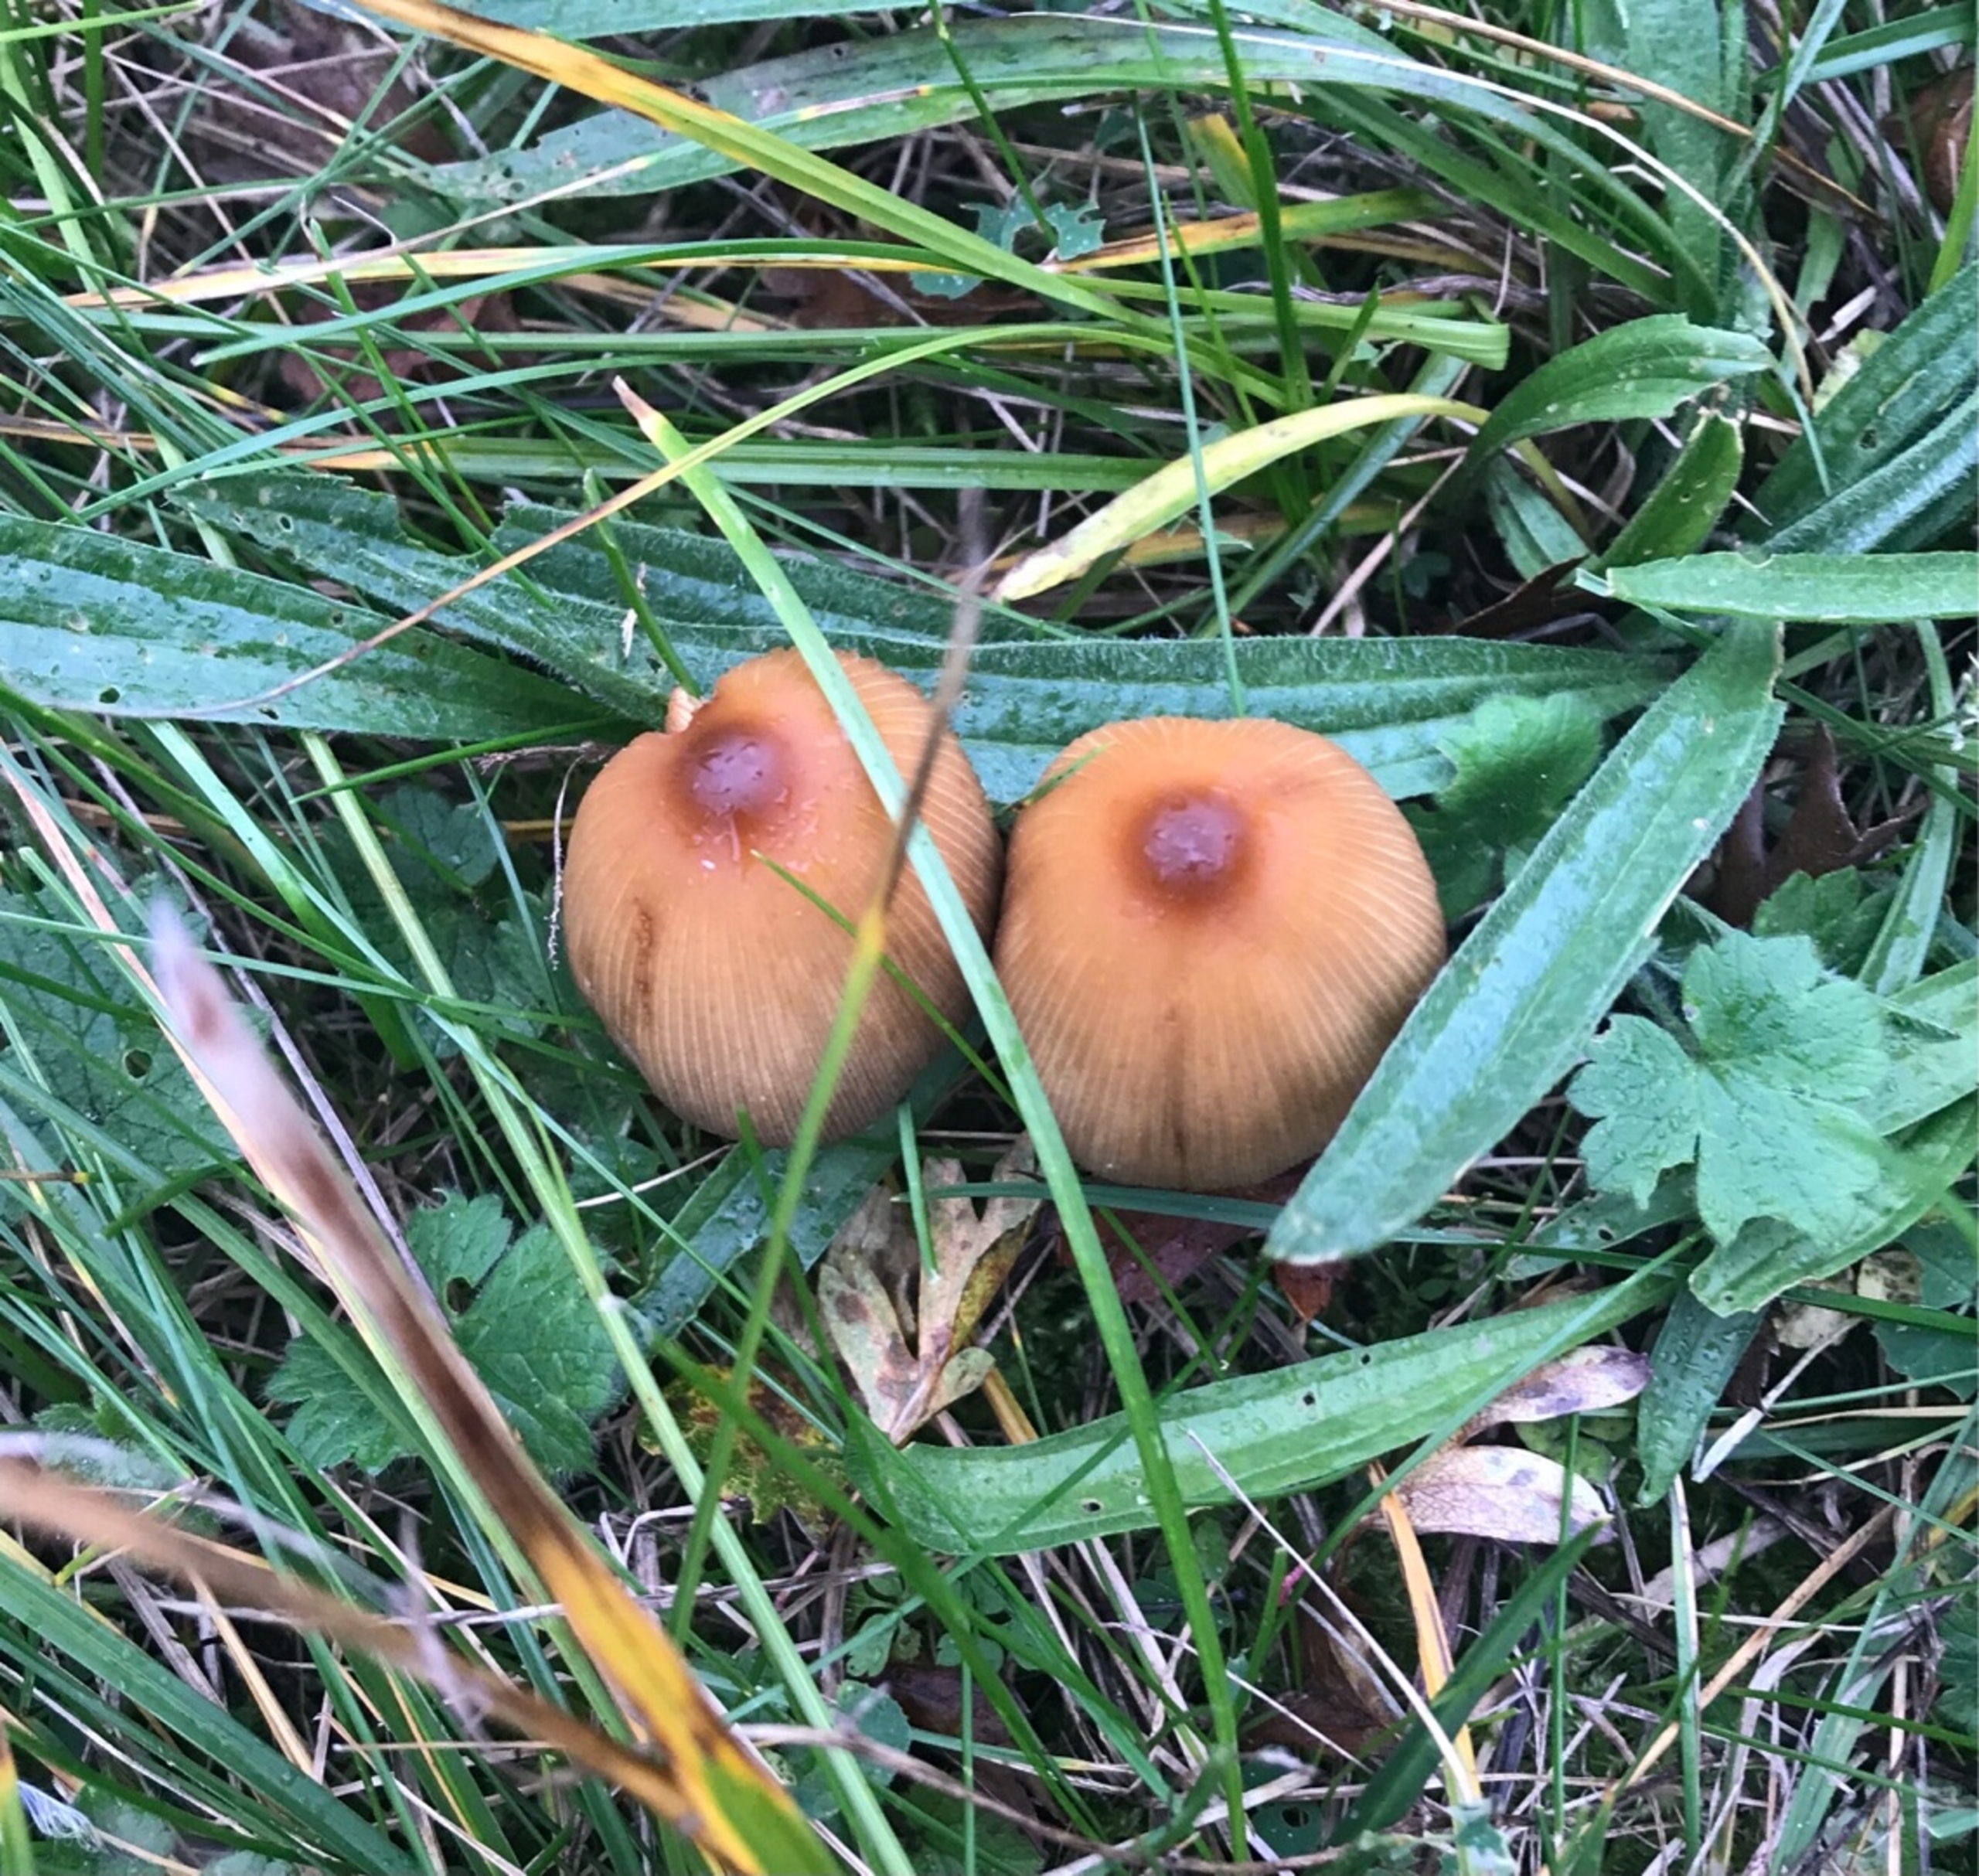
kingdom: Fungi
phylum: Basidiomycota
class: Agaricomycetes
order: Agaricales
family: Psathyrellaceae
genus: Coprinellus
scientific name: Coprinellus
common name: Blækhat
